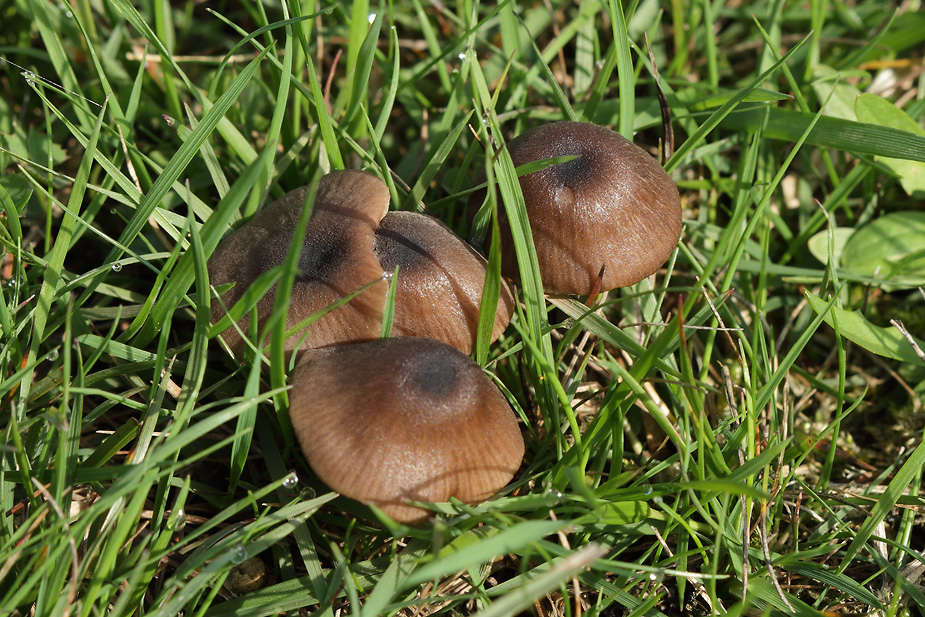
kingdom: Fungi
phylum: Basidiomycota
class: Agaricomycetes
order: Agaricales
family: Entolomataceae
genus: Entoloma
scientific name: Entoloma asprellum
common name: ru rødblad
